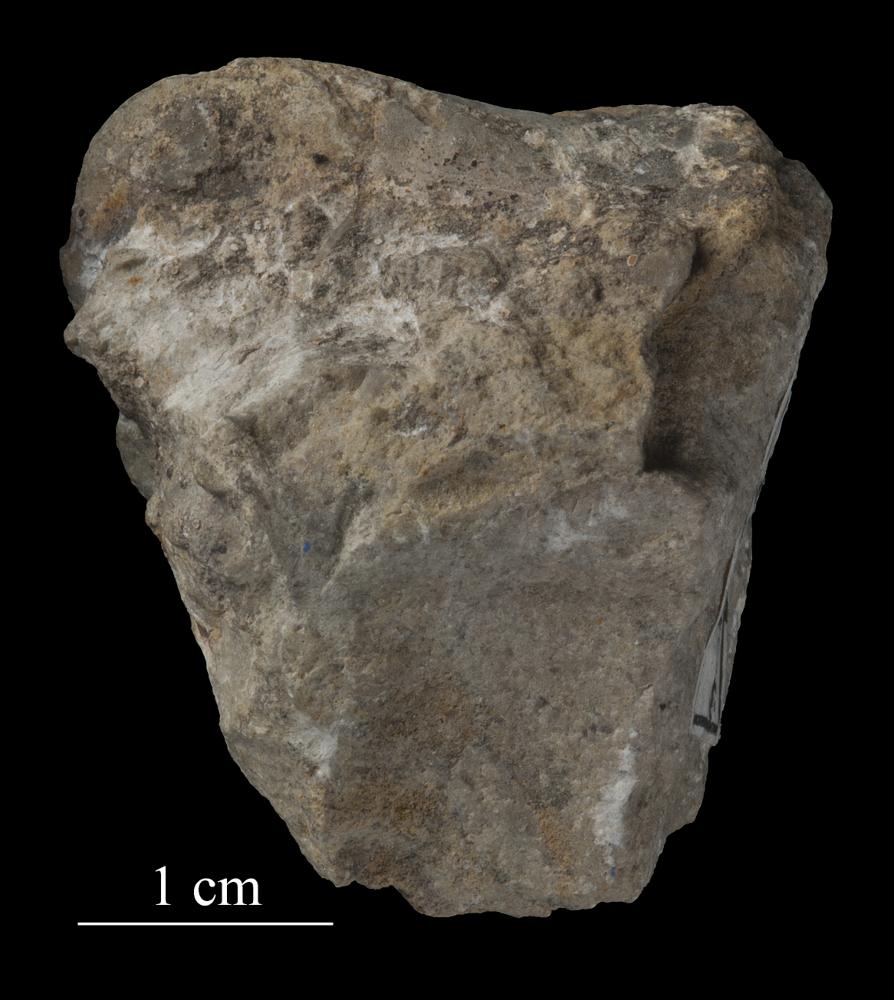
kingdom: Animalia
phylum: Mollusca
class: Gastropoda
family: Bucaniidae
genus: Salpingostoma
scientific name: Salpingostoma Bellerophon megalostoma
